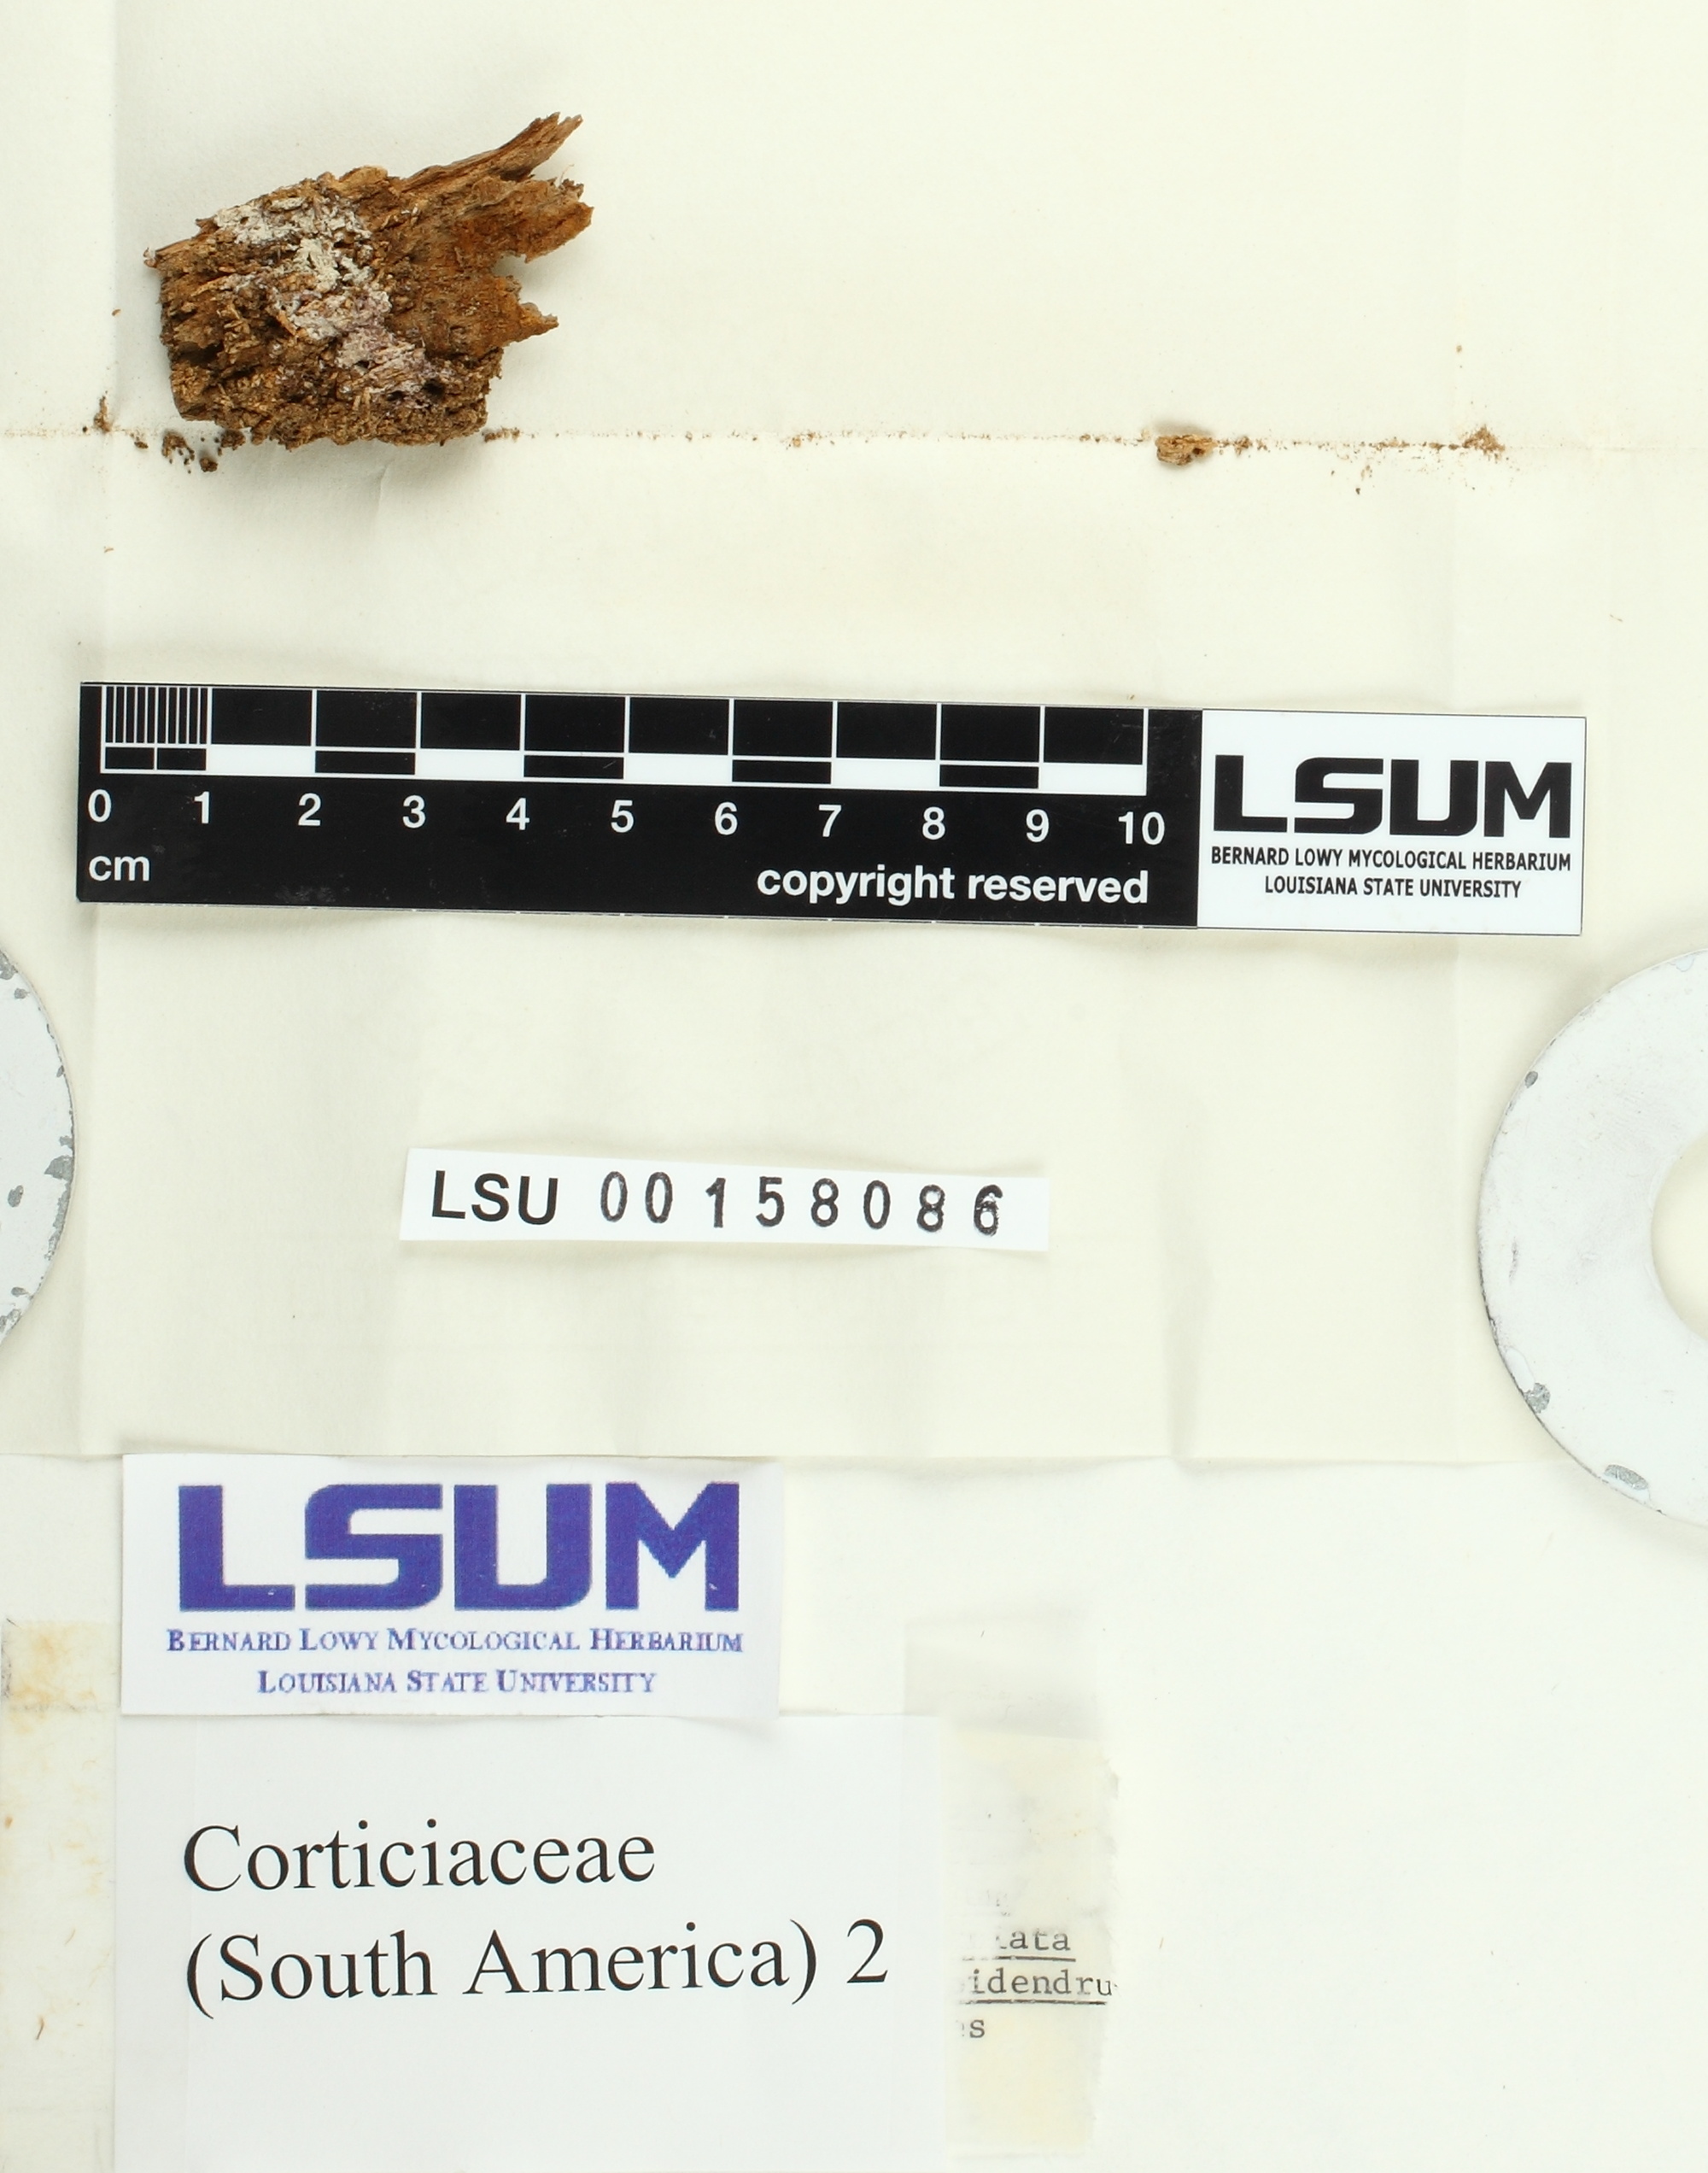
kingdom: Fungi
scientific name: Fungi
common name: Fungi
